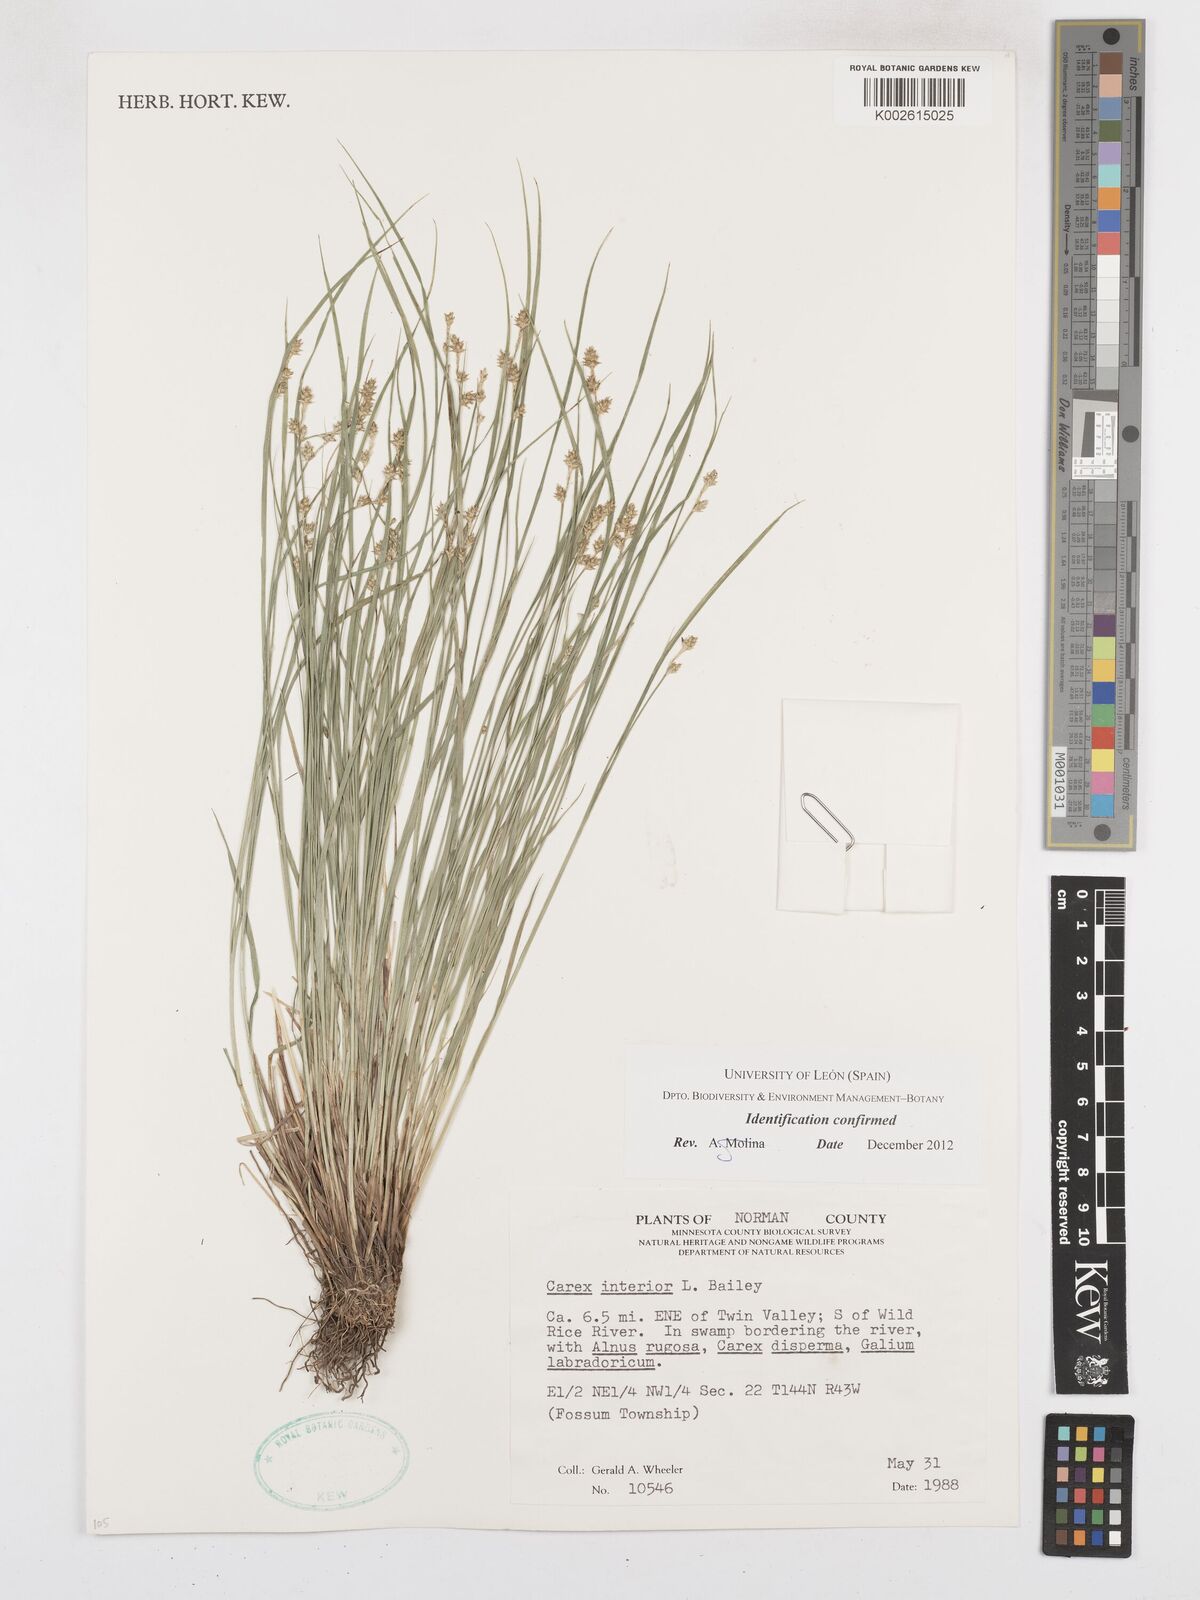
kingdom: Plantae
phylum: Tracheophyta
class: Liliopsida
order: Poales
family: Cyperaceae
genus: Carex
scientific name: Carex interior
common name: Inland sedge
